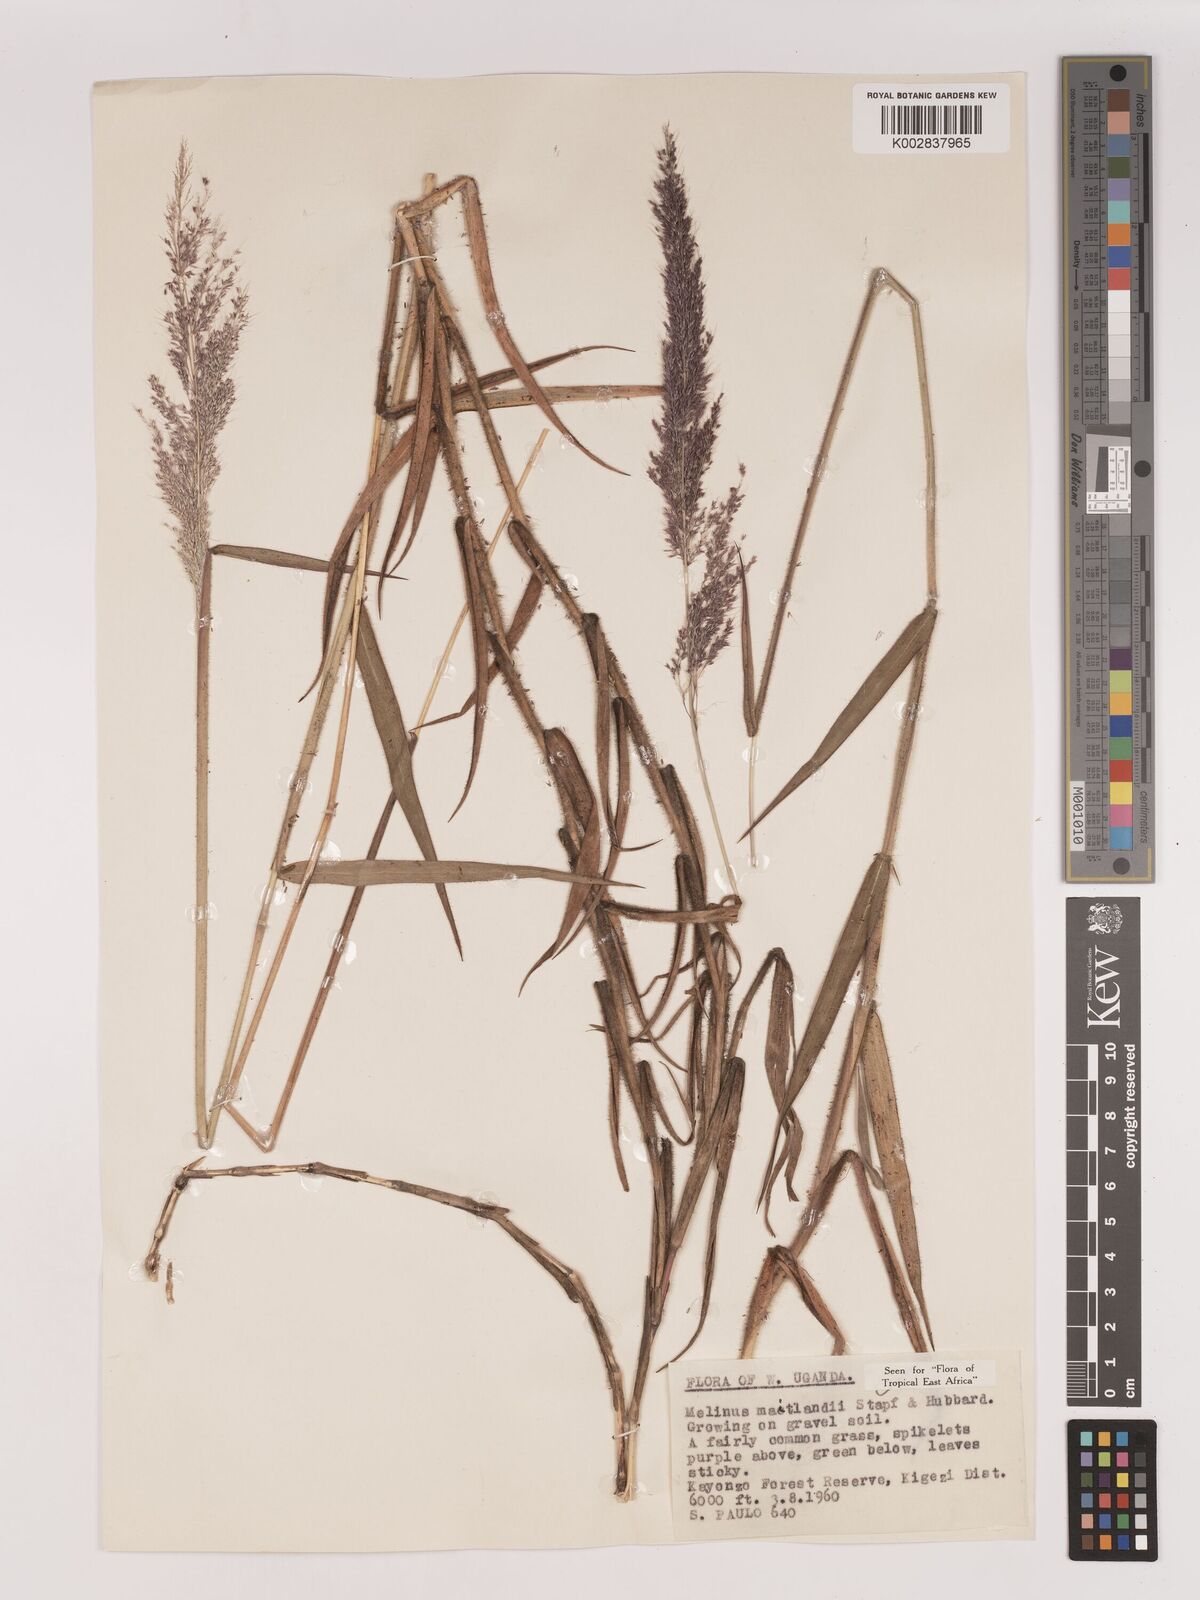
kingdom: Plantae
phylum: Tracheophyta
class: Liliopsida
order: Poales
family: Poaceae
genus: Melinis
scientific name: Melinis minutiflora
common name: Molassesgrass
